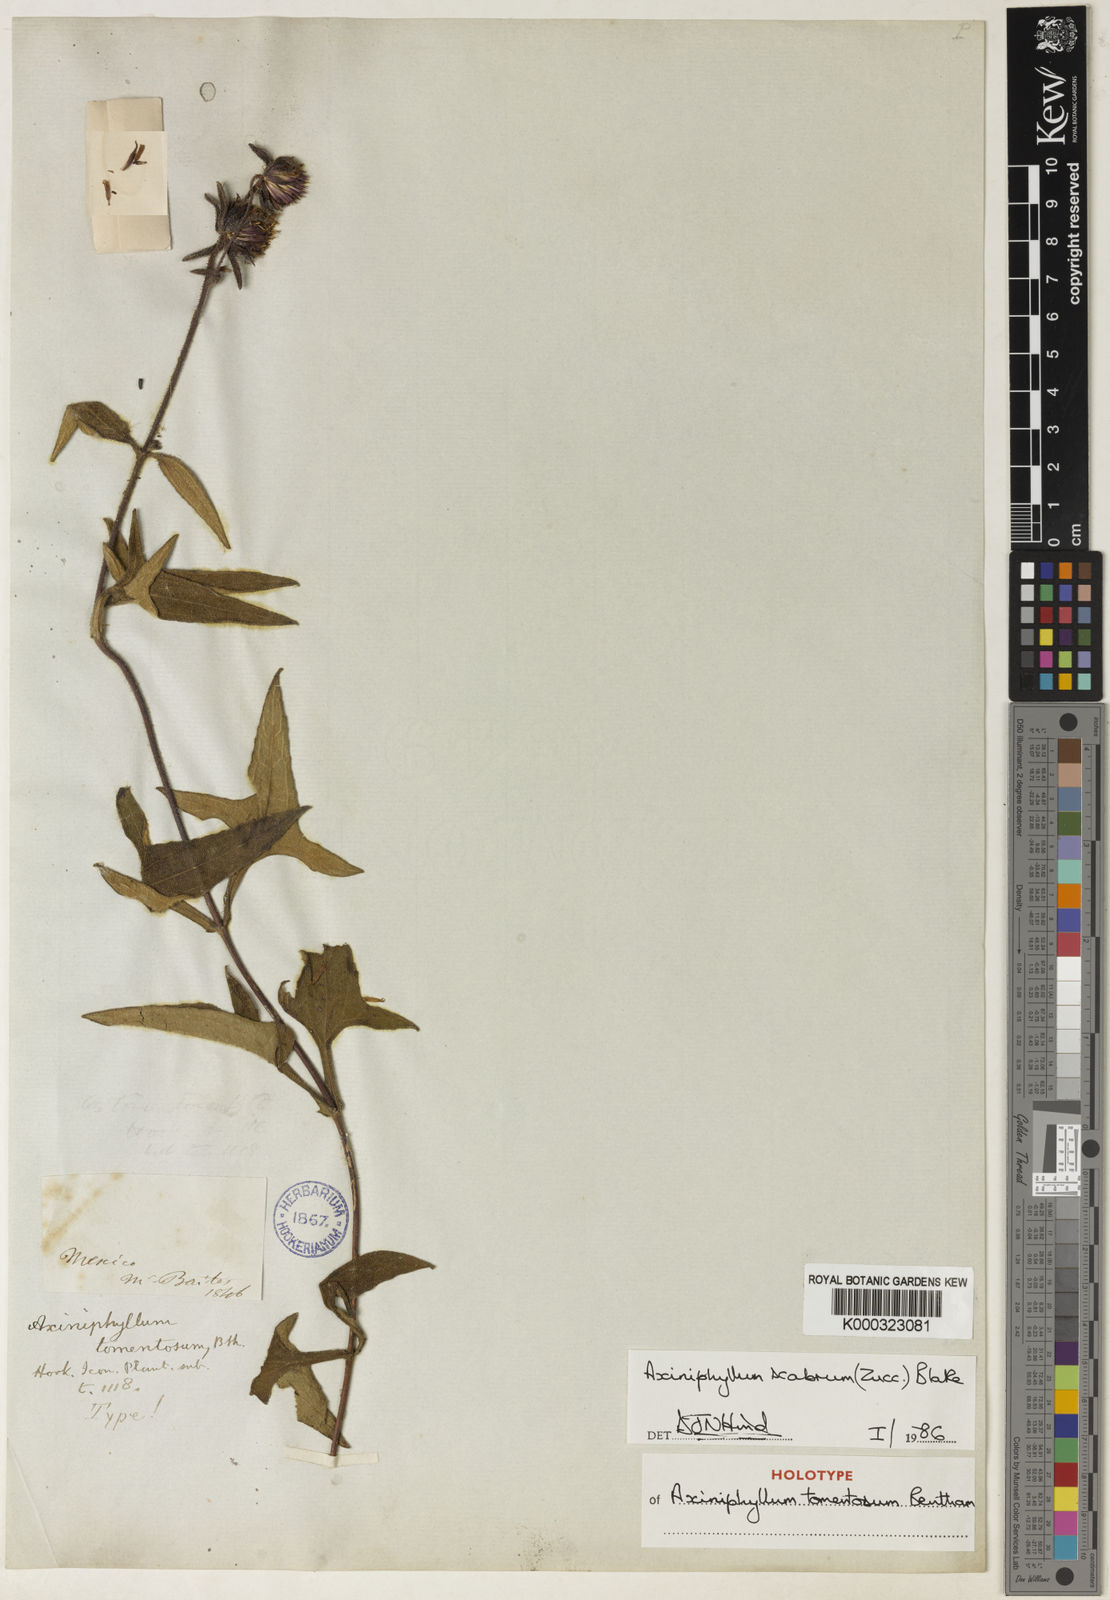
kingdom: Plantae
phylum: Tracheophyta
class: Magnoliopsida
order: Asterales
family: Asteraceae
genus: Axiniphyllum
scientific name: Axiniphyllum scabrum
